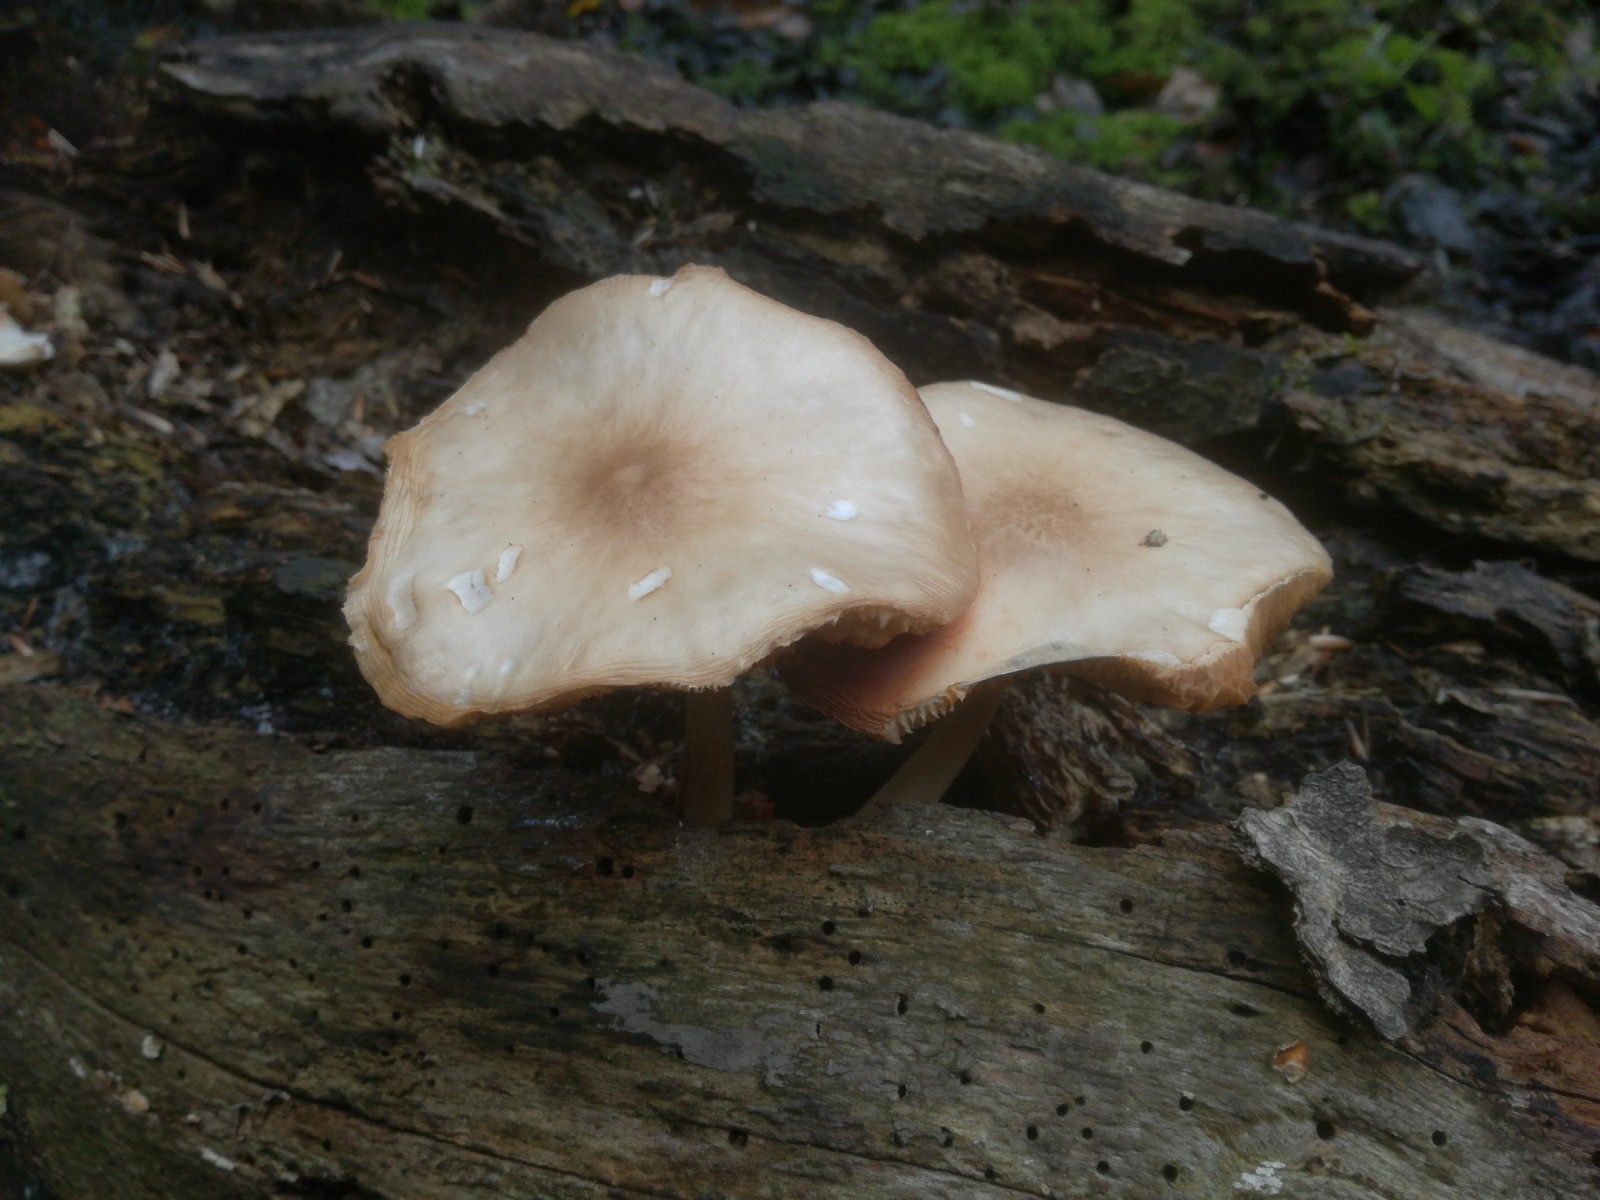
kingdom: Fungi
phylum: Basidiomycota
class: Agaricomycetes
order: Agaricales
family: Pluteaceae
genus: Pluteus
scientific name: Pluteus
